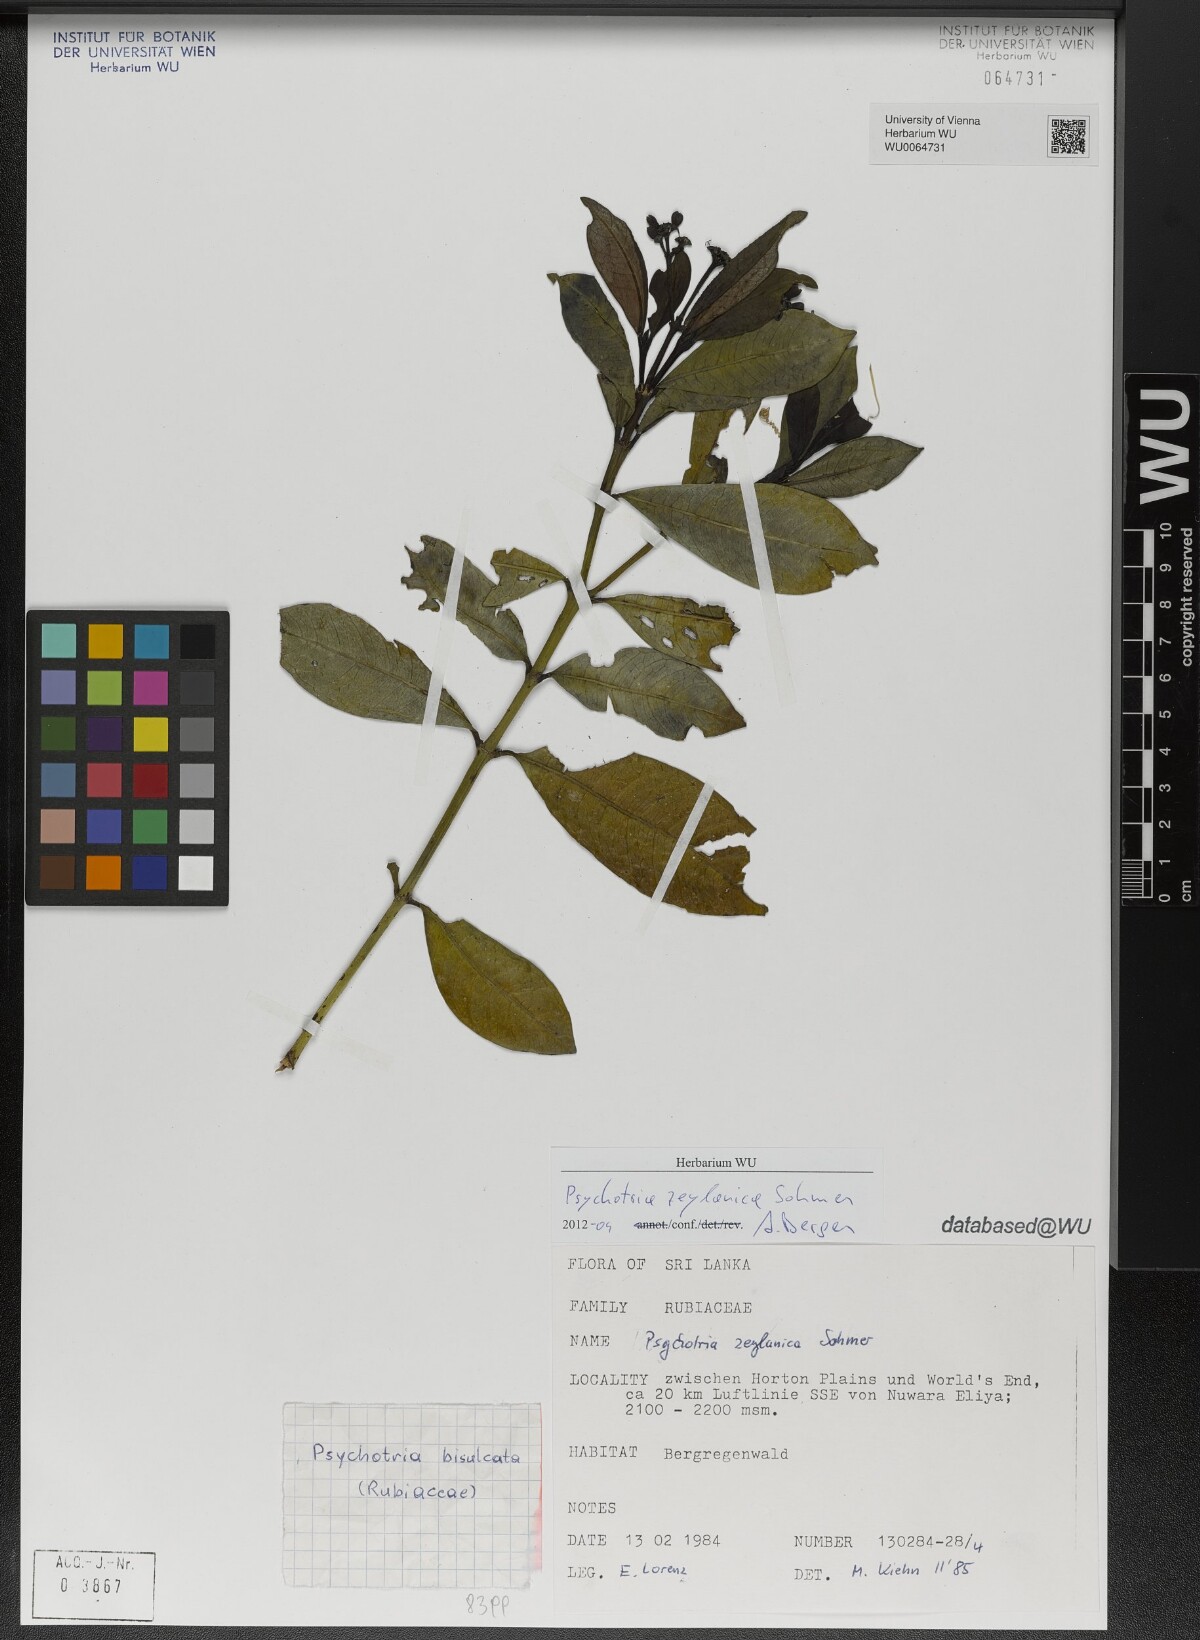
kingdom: Plantae
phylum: Tracheophyta
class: Magnoliopsida
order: Gentianales
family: Rubiaceae
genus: Psychotria
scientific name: Psychotria zeylanica
